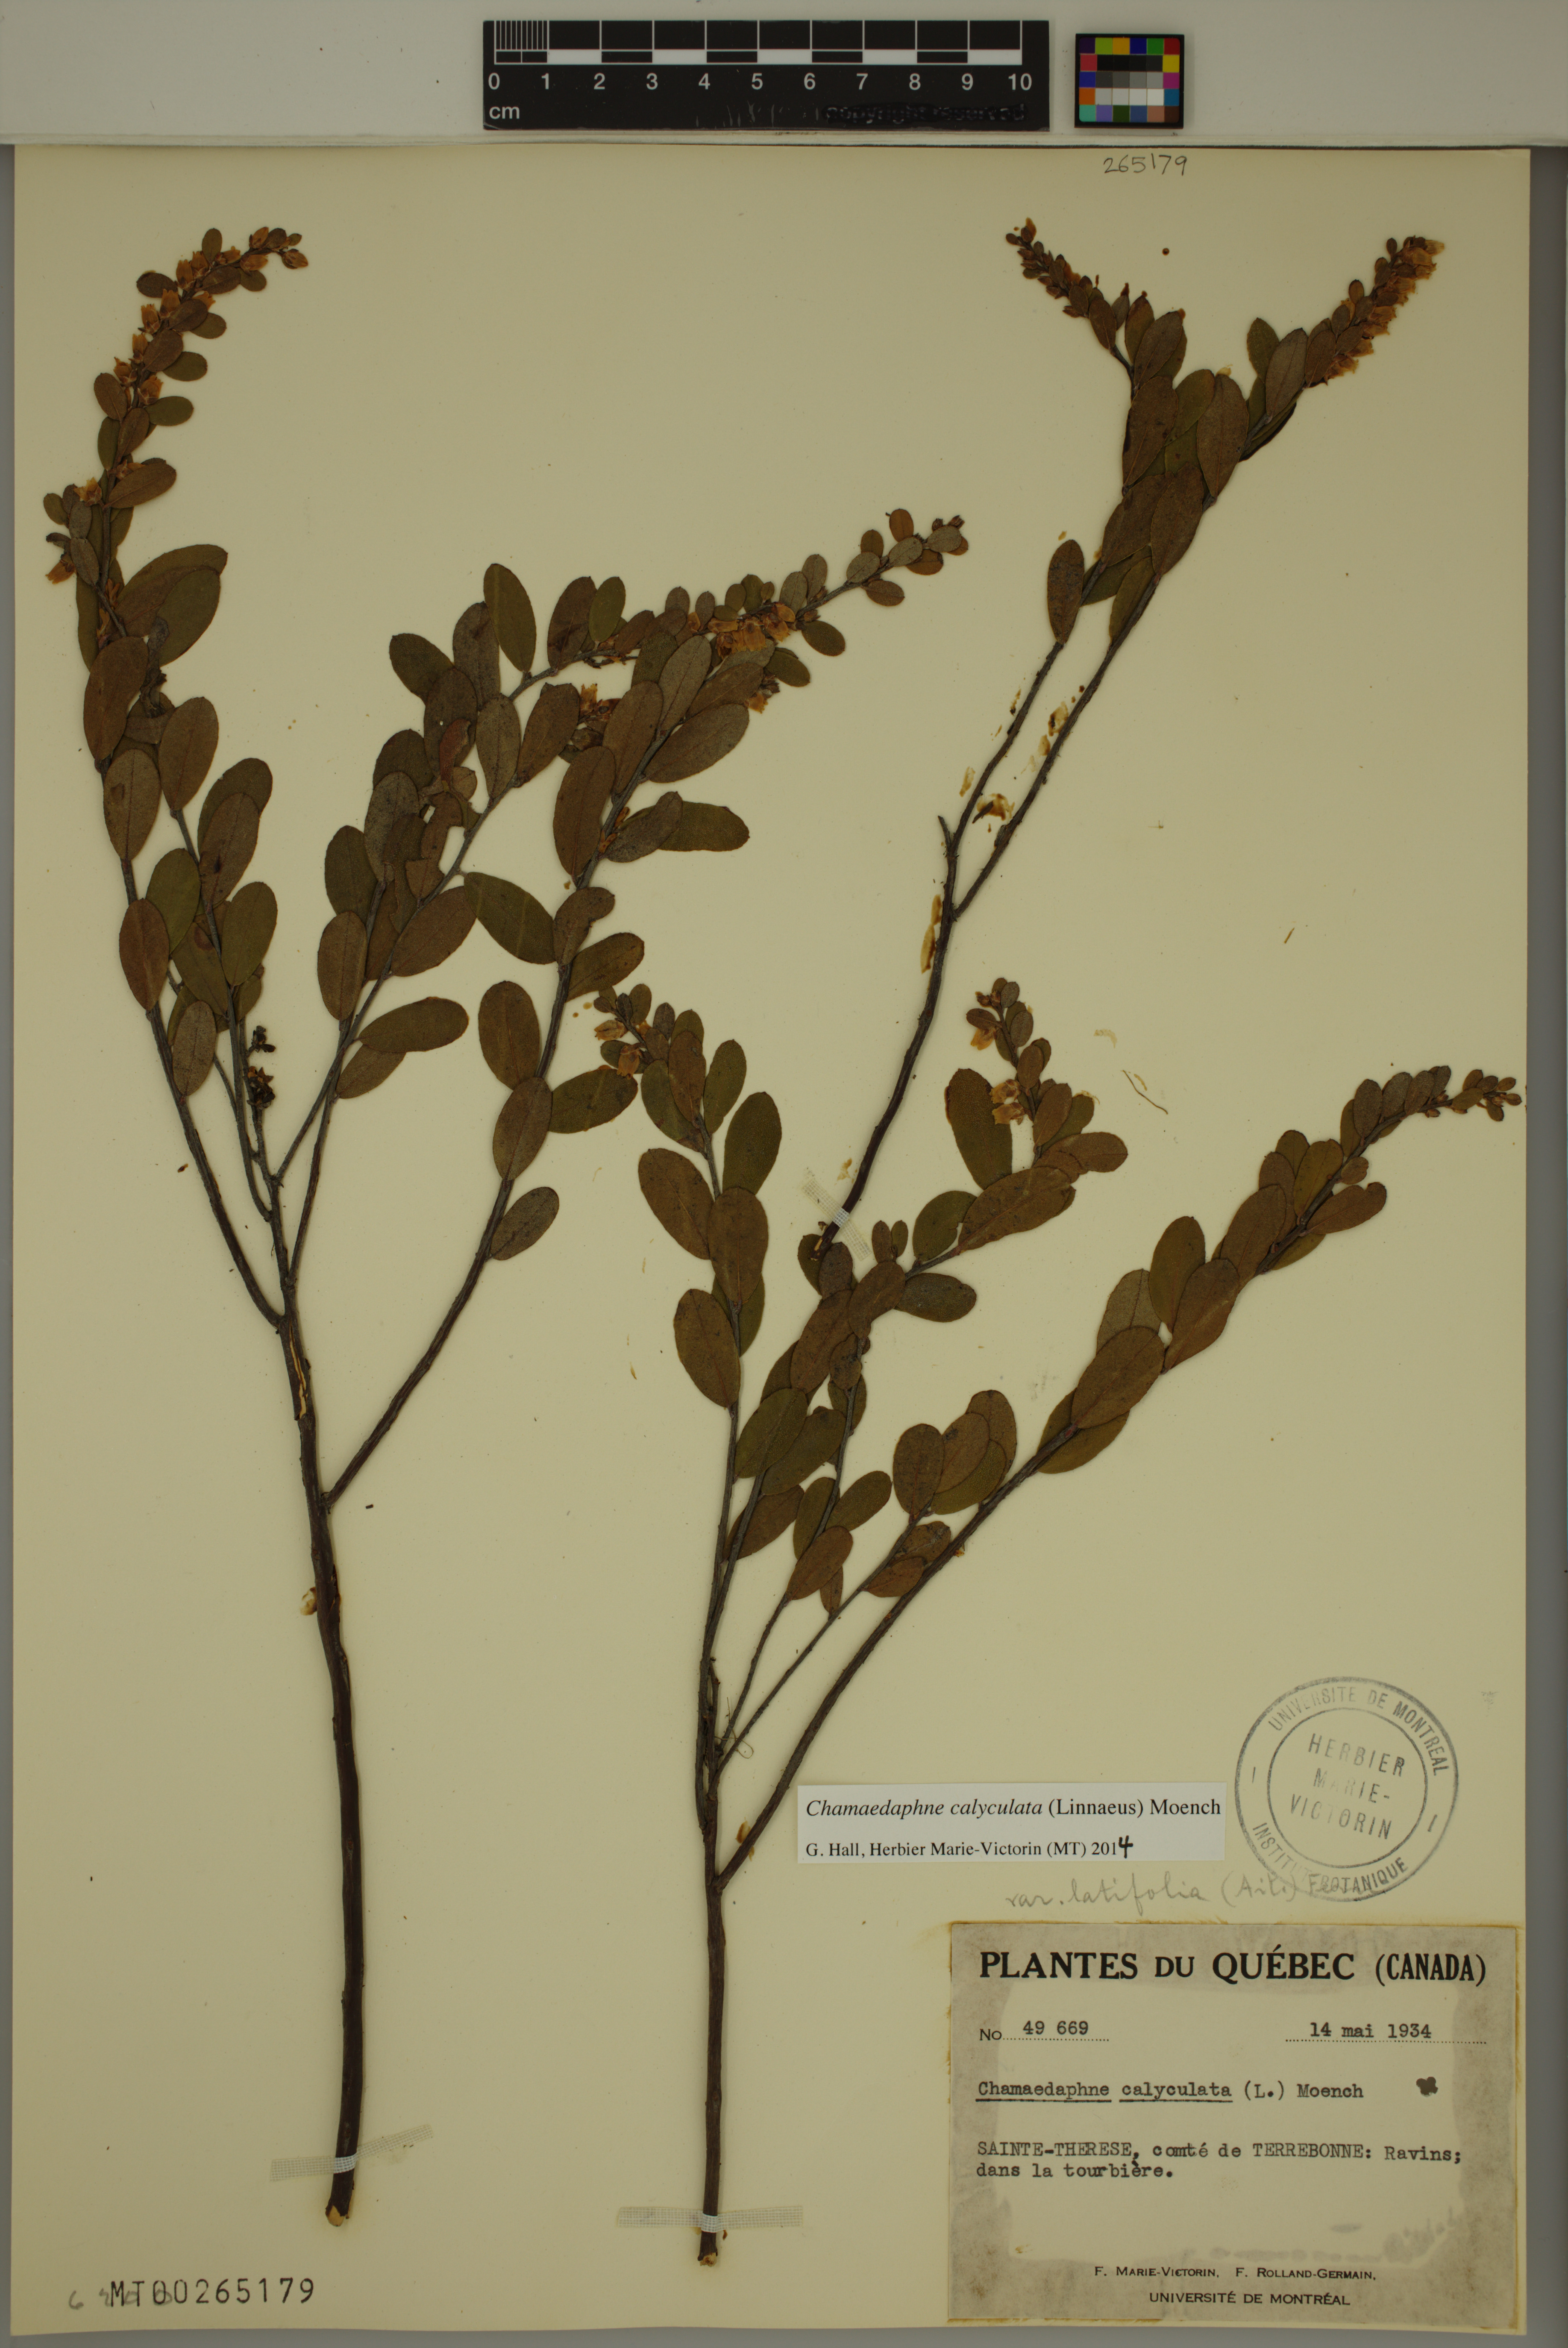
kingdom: Plantae
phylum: Tracheophyta
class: Magnoliopsida
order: Ericales
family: Ericaceae
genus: Chamaedaphne
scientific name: Chamaedaphne calyculata
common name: Leatherleaf
